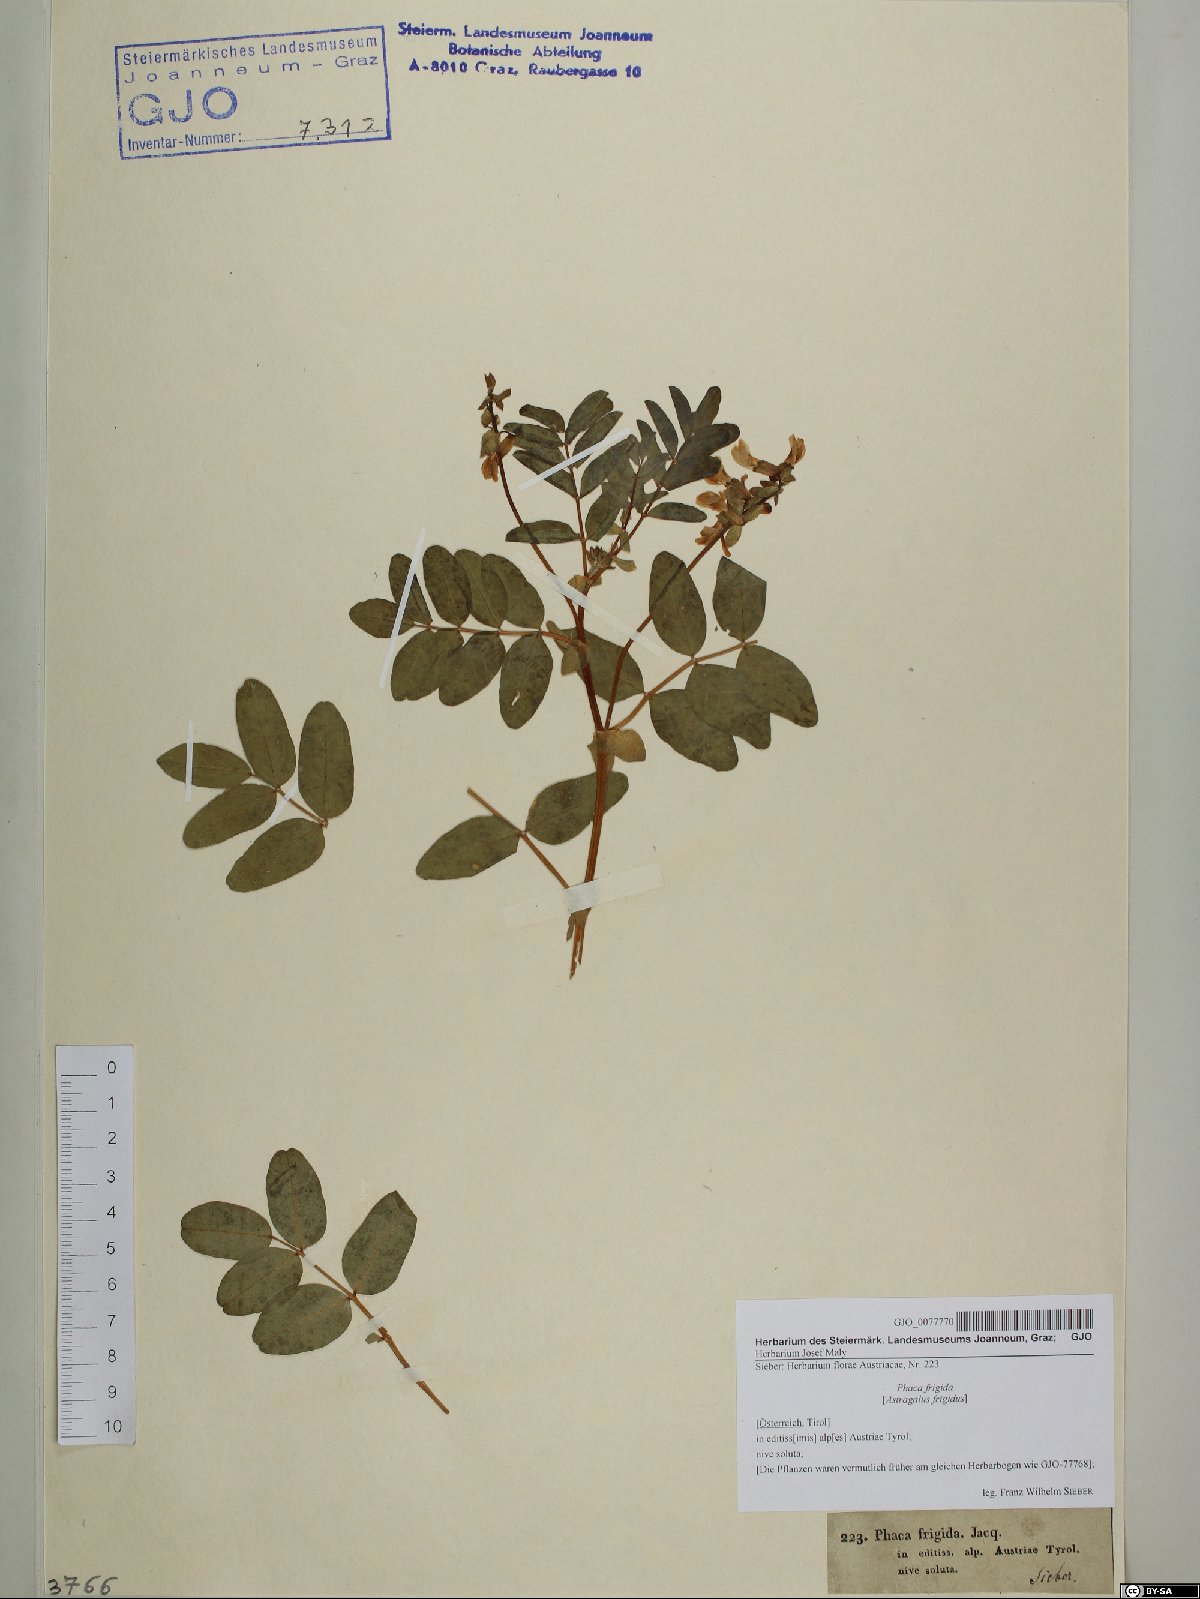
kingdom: Plantae
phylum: Tracheophyta
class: Magnoliopsida
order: Fabales
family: Fabaceae
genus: Astragalus
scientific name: Astragalus frigidus
